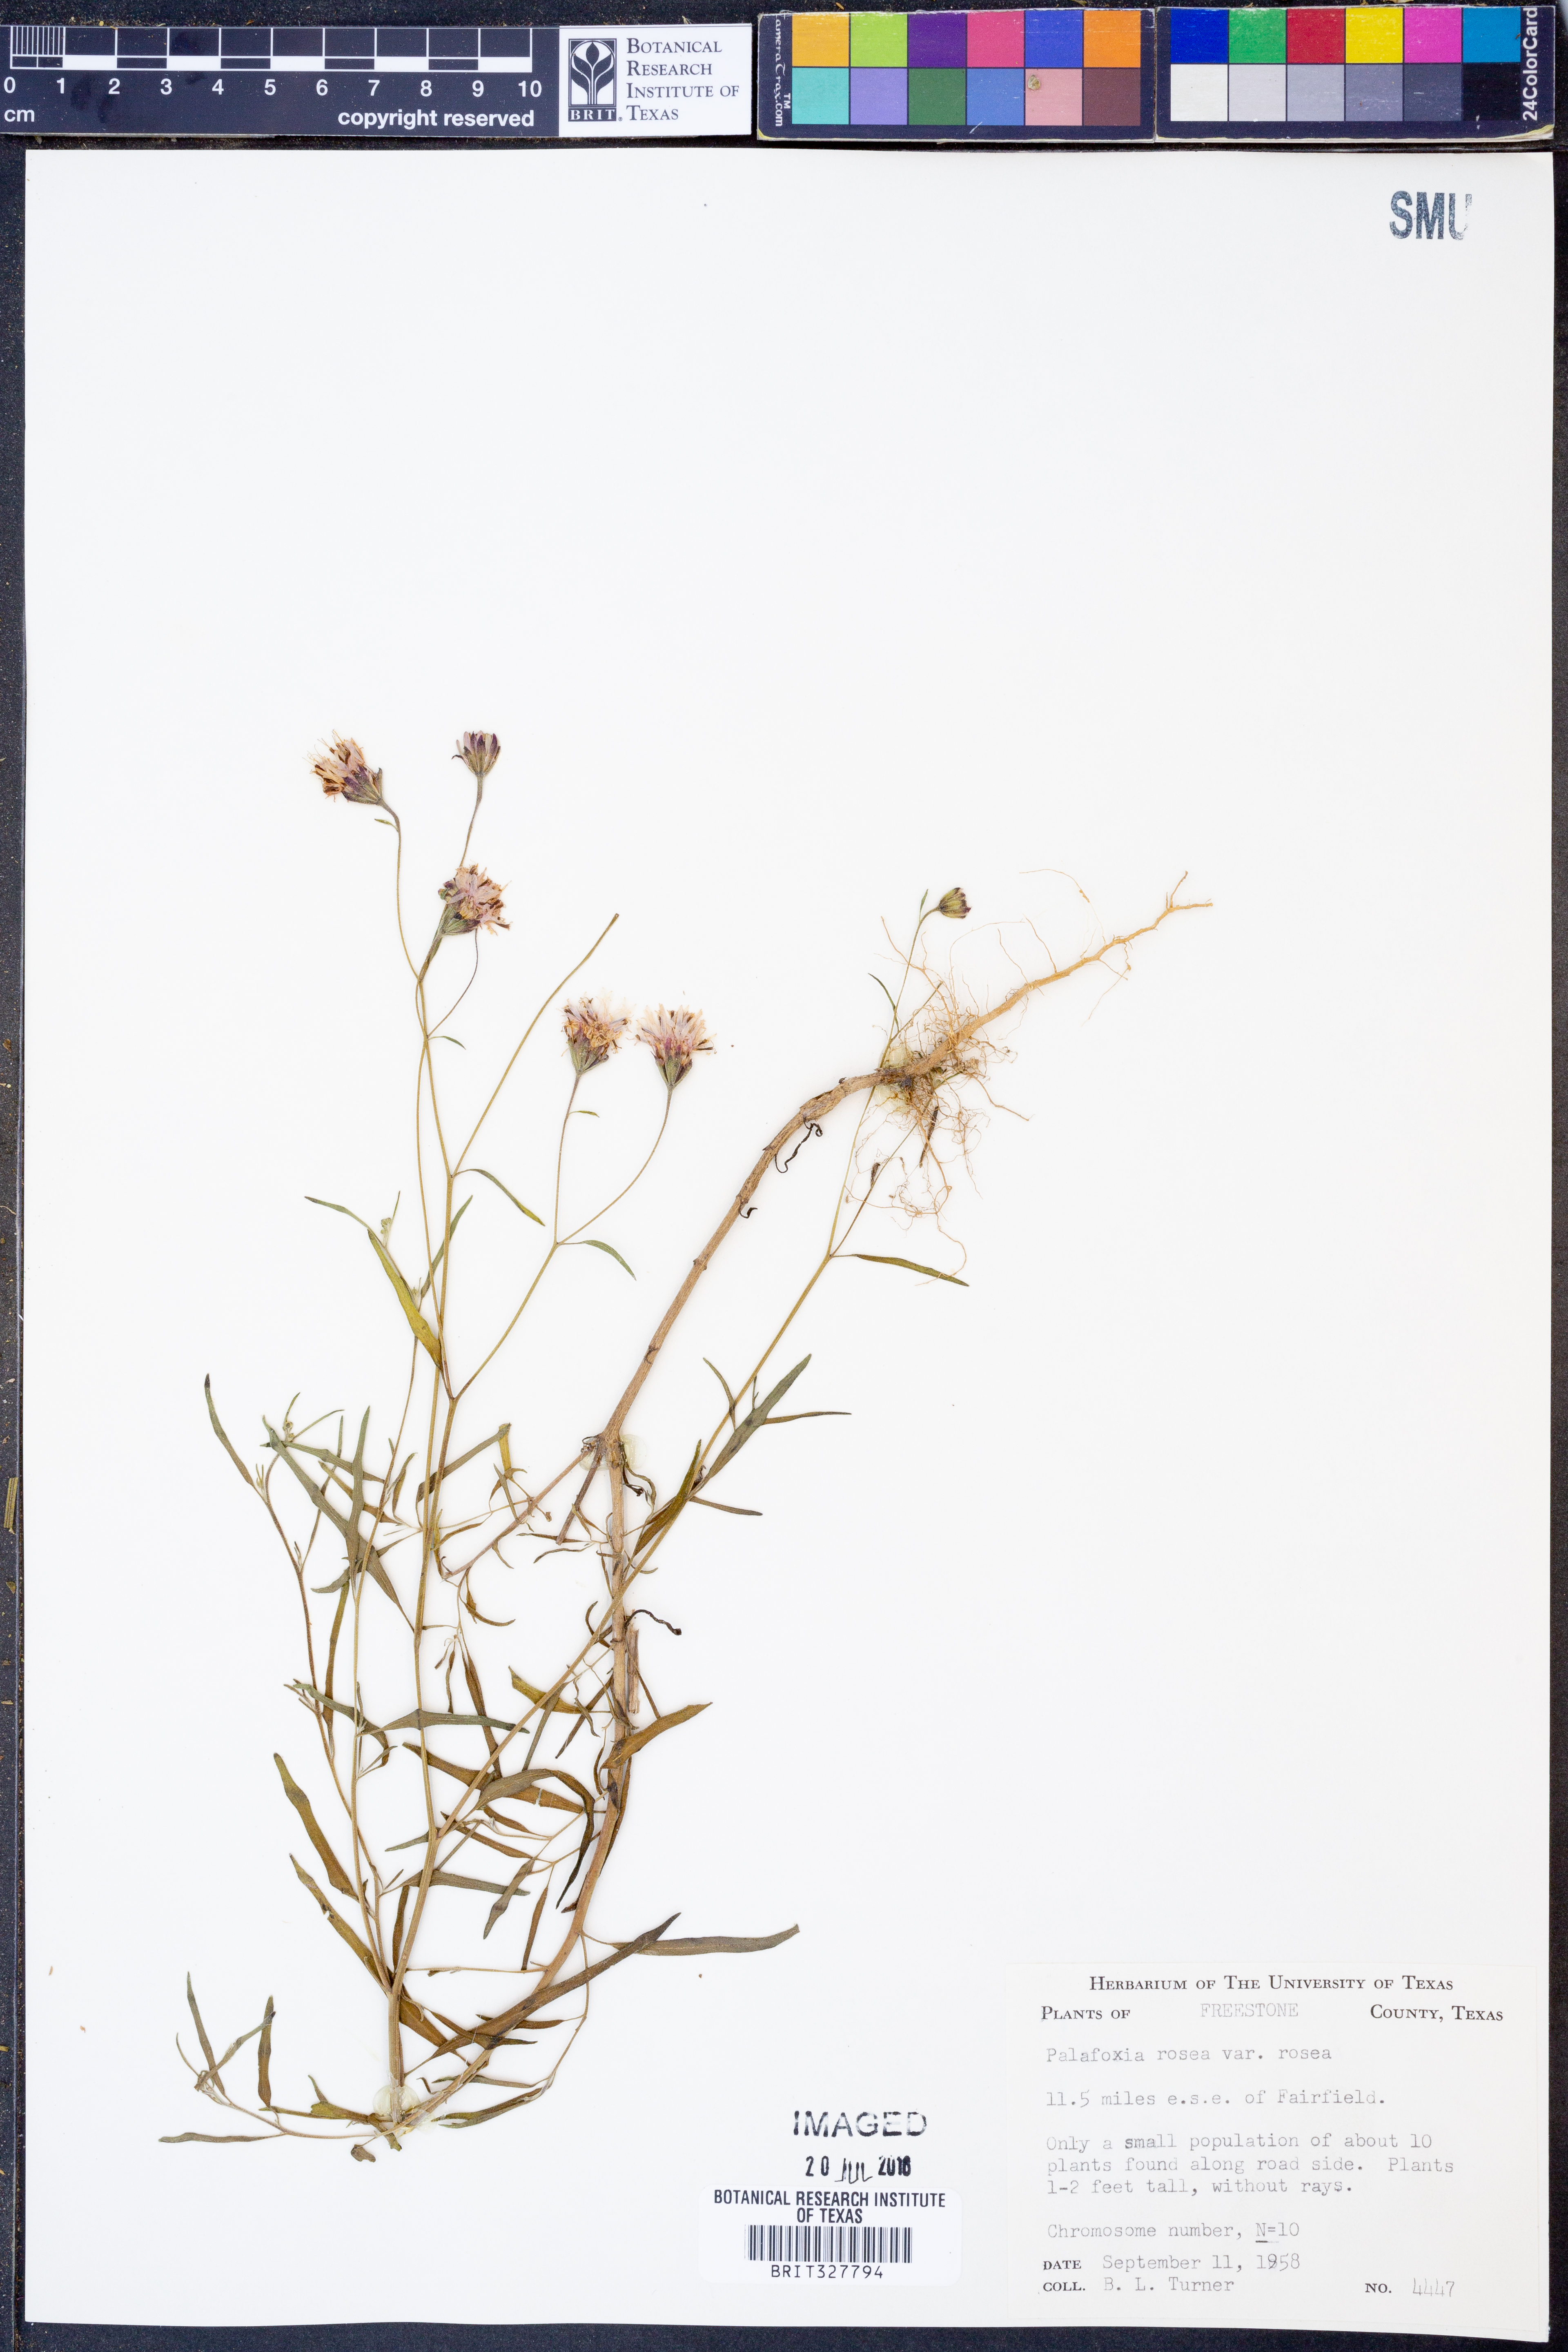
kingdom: Plantae
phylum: Tracheophyta
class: Magnoliopsida
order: Asterales
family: Asteraceae
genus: Palafoxia
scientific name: Palafoxia rosea
